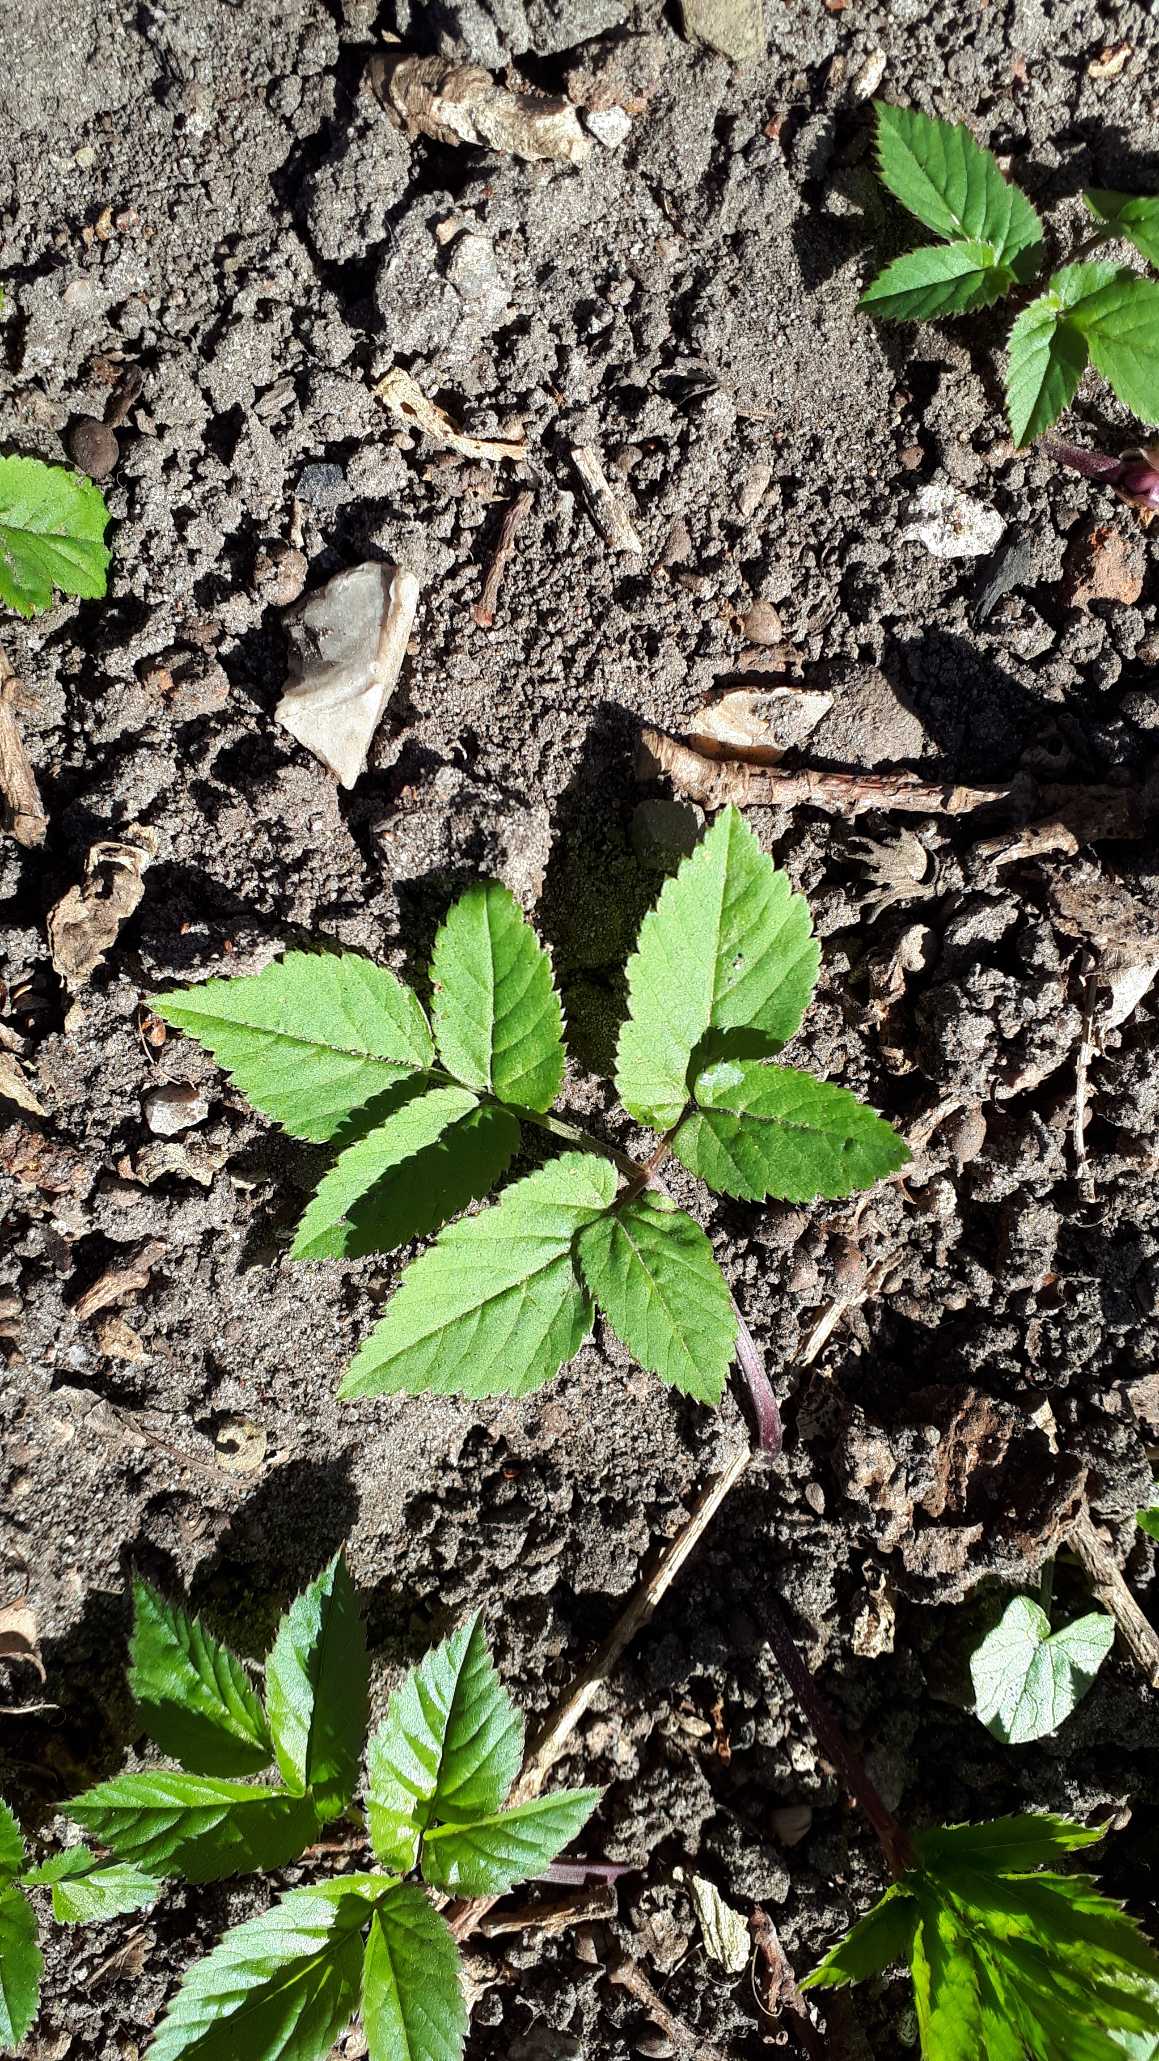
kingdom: Plantae
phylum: Tracheophyta
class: Magnoliopsida
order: Apiales
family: Apiaceae
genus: Aegopodium
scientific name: Aegopodium podagraria
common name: Skvalderkål
